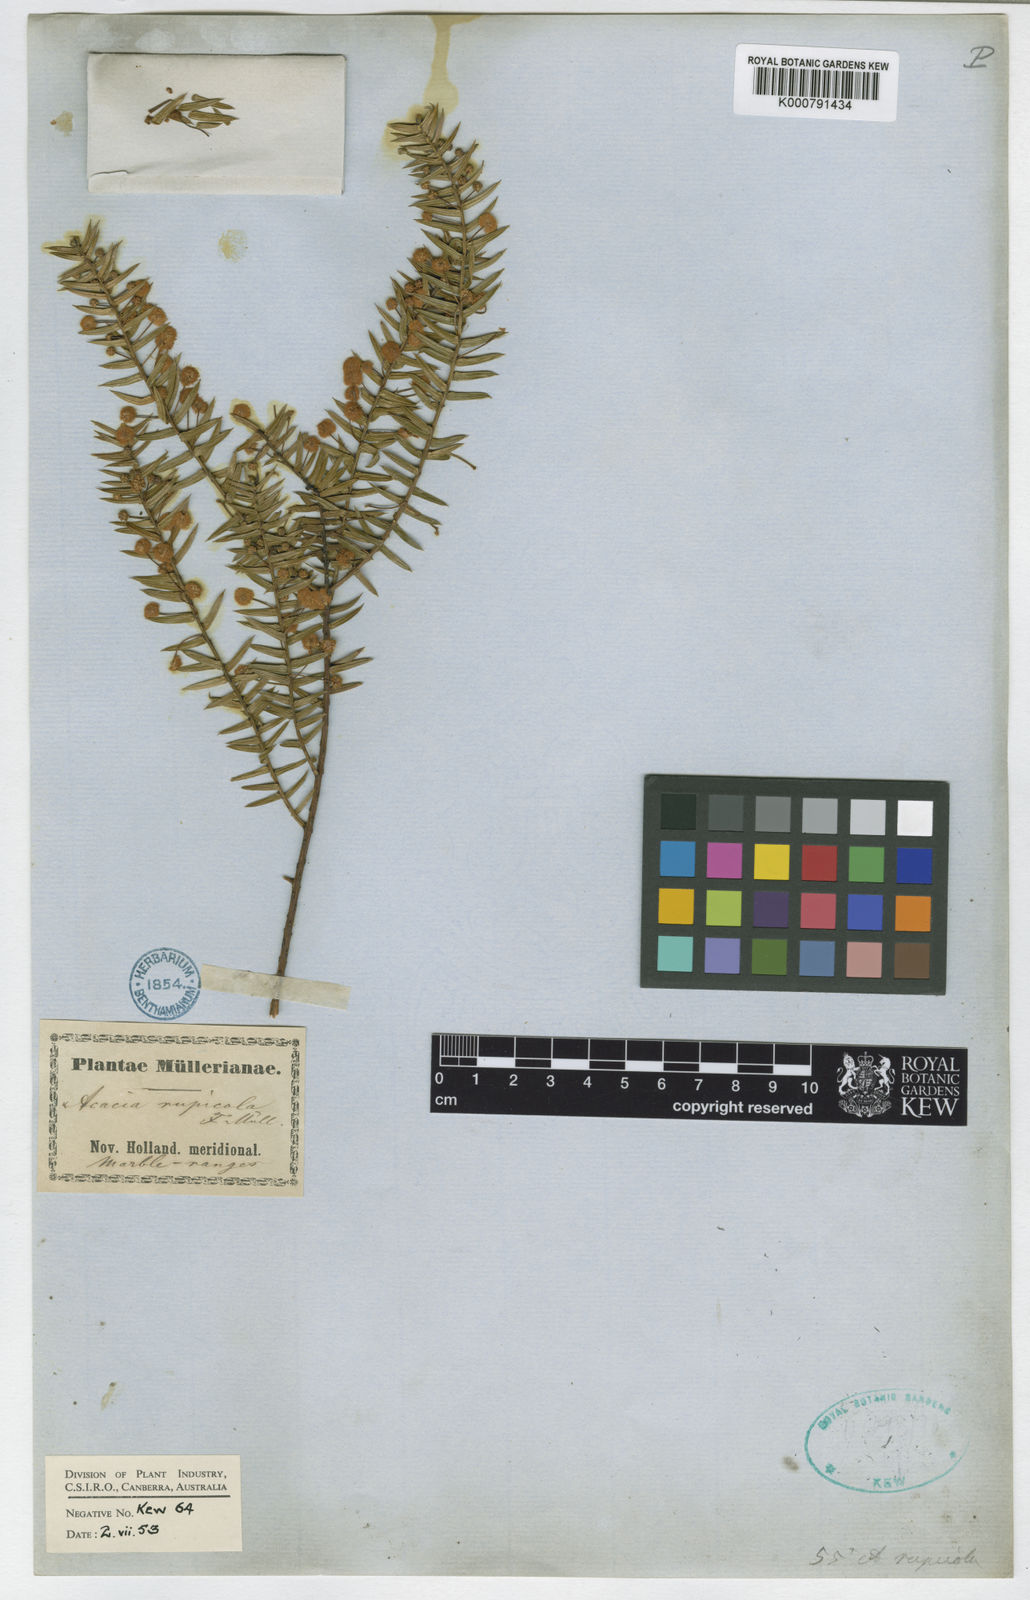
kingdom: Plantae
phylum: Tracheophyta
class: Magnoliopsida
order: Fabales
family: Fabaceae
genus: Acacia
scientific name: Acacia rupicola
